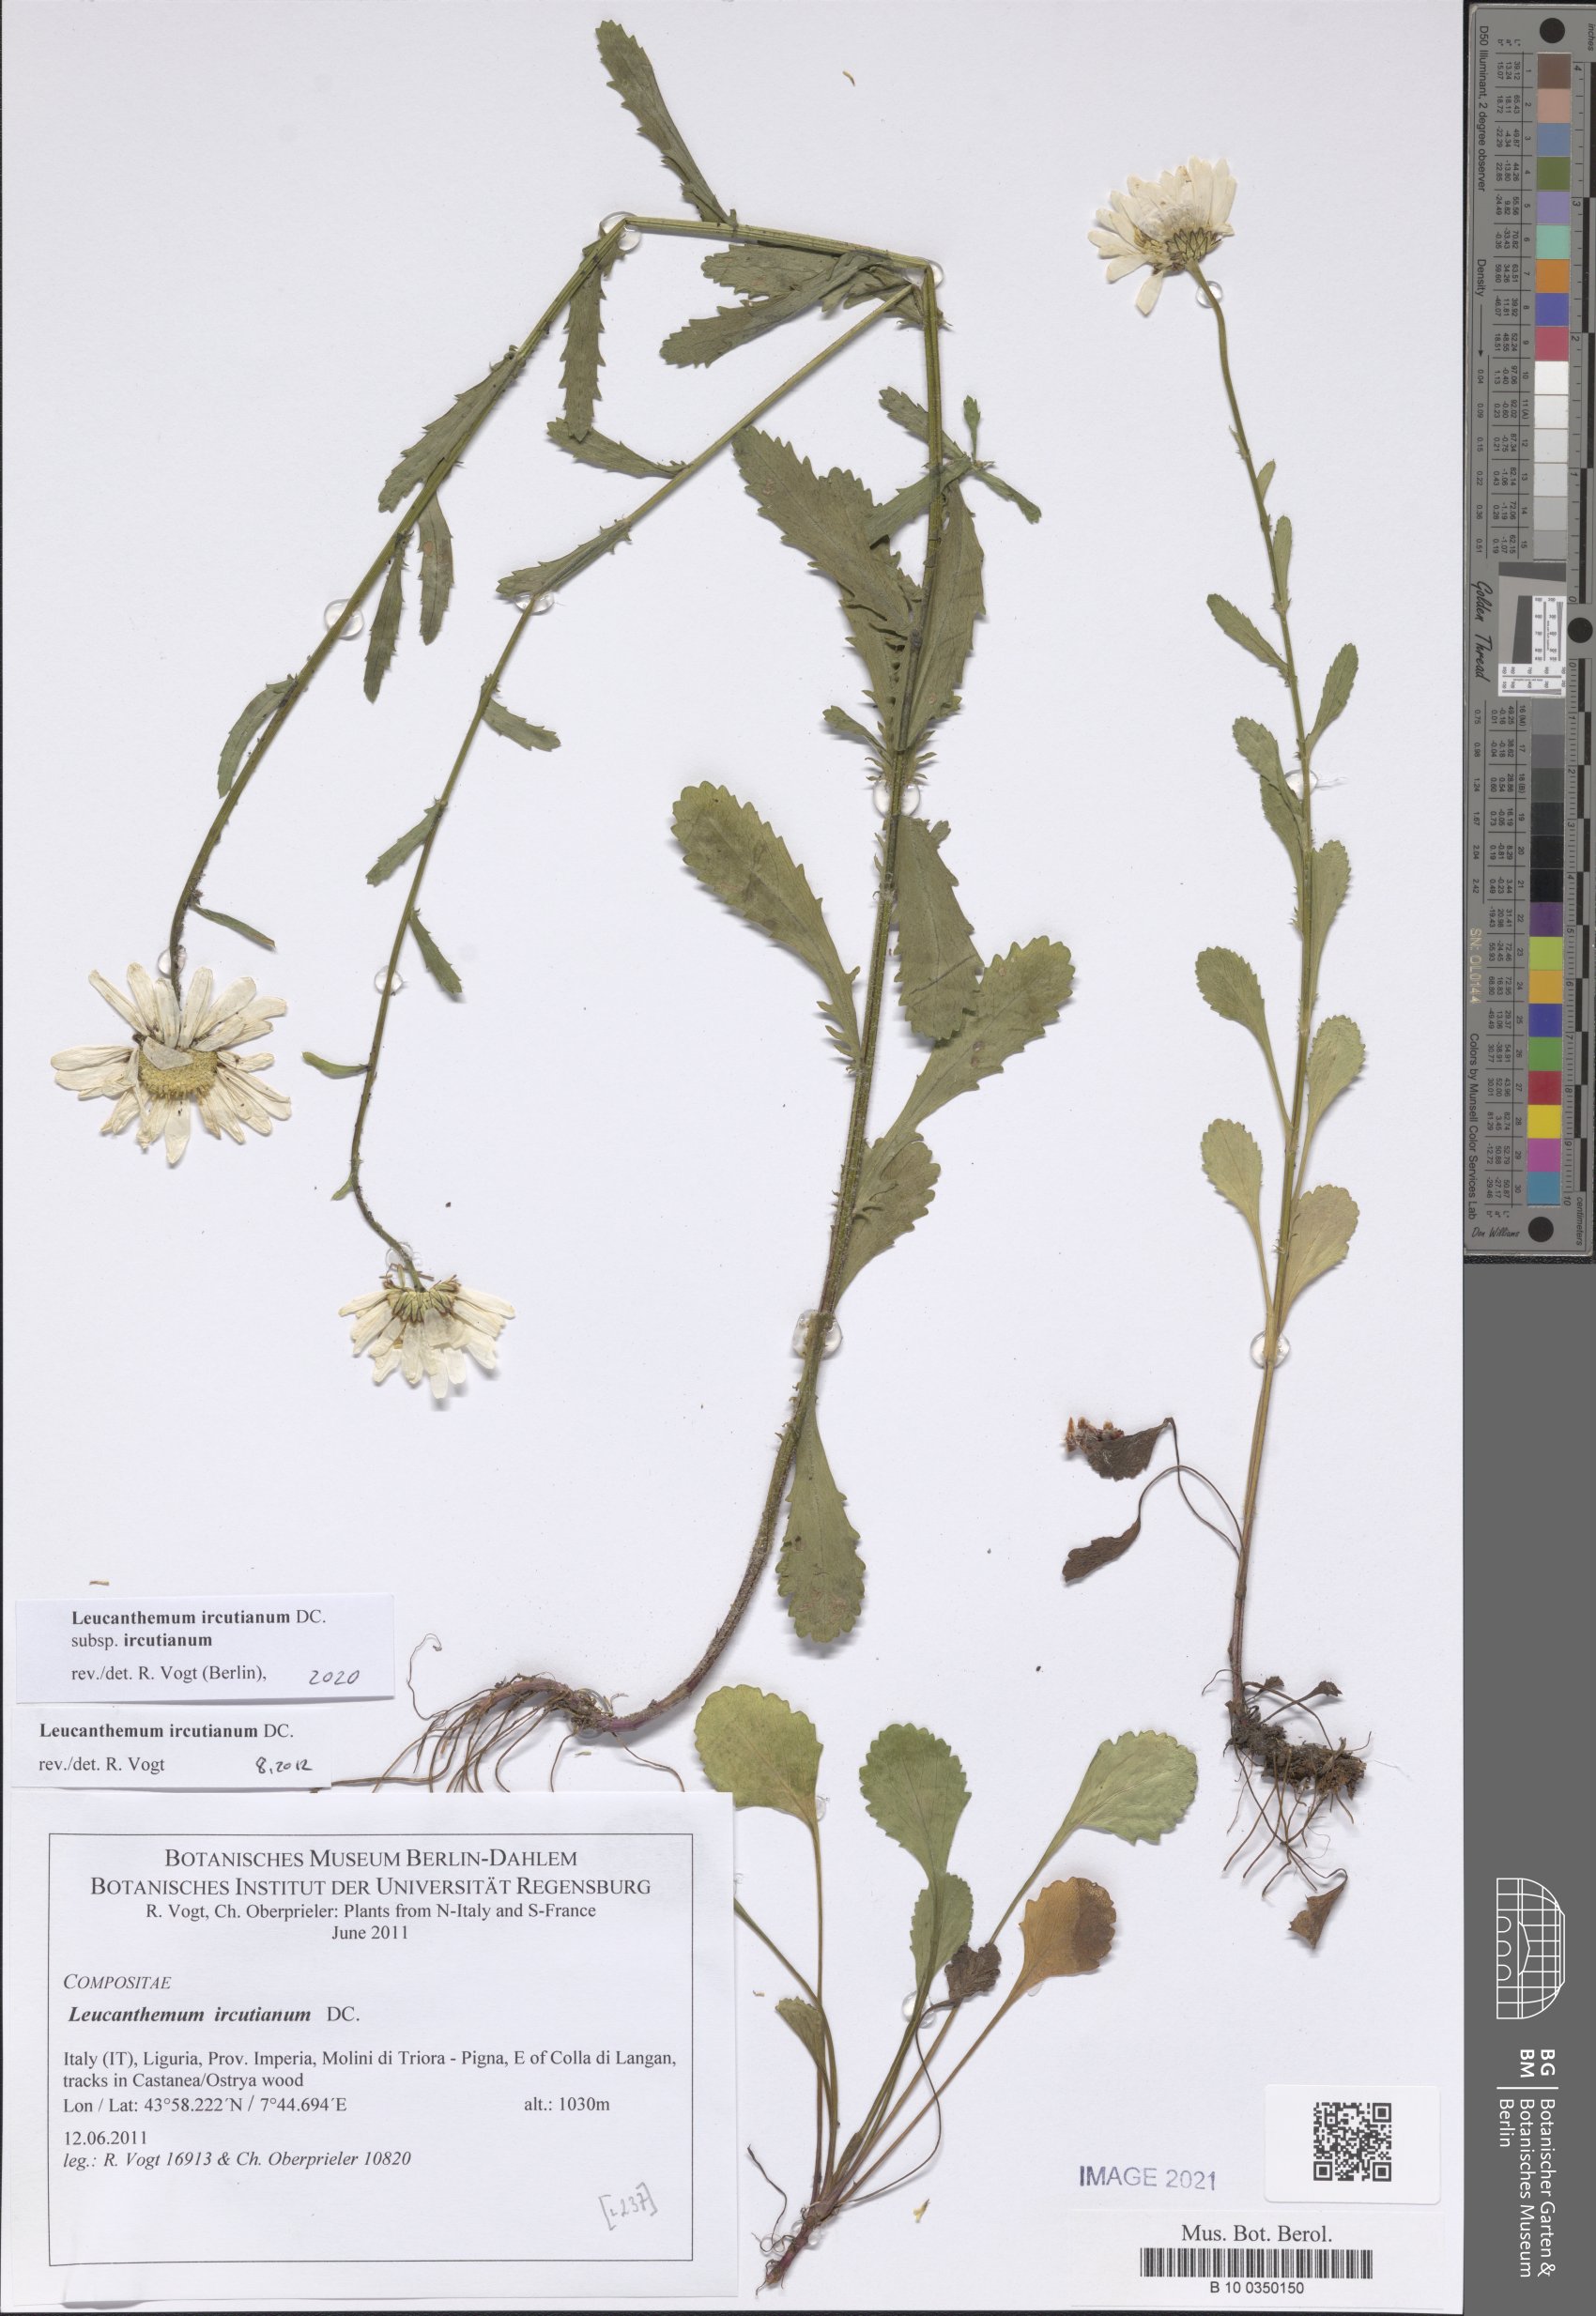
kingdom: Plantae
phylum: Tracheophyta
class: Magnoliopsida
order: Asterales
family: Asteraceae
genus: Leucanthemum
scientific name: Leucanthemum ircutianum
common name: Daisy
